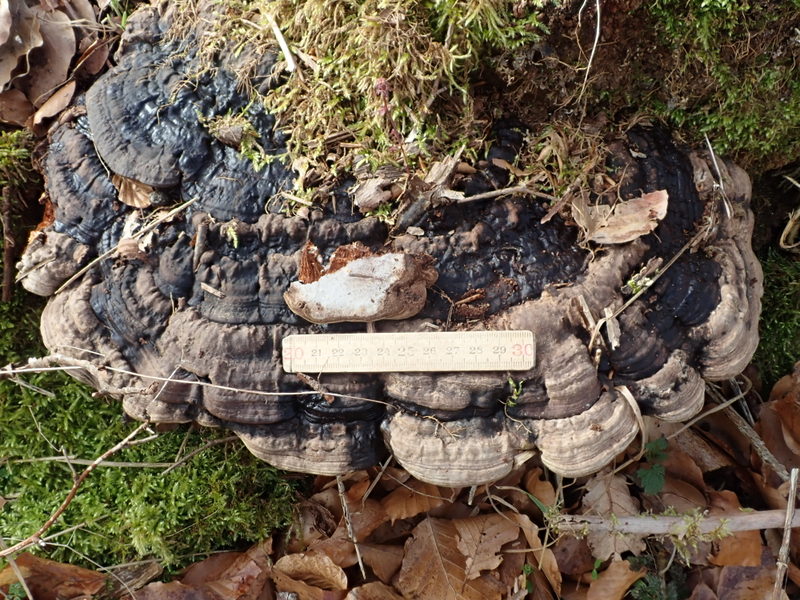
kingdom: Fungi
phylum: Basidiomycota
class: Agaricomycetes
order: Polyporales
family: Ischnodermataceae
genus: Ischnoderma
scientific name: Ischnoderma resinosum
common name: løv-tjæreporesvamp
